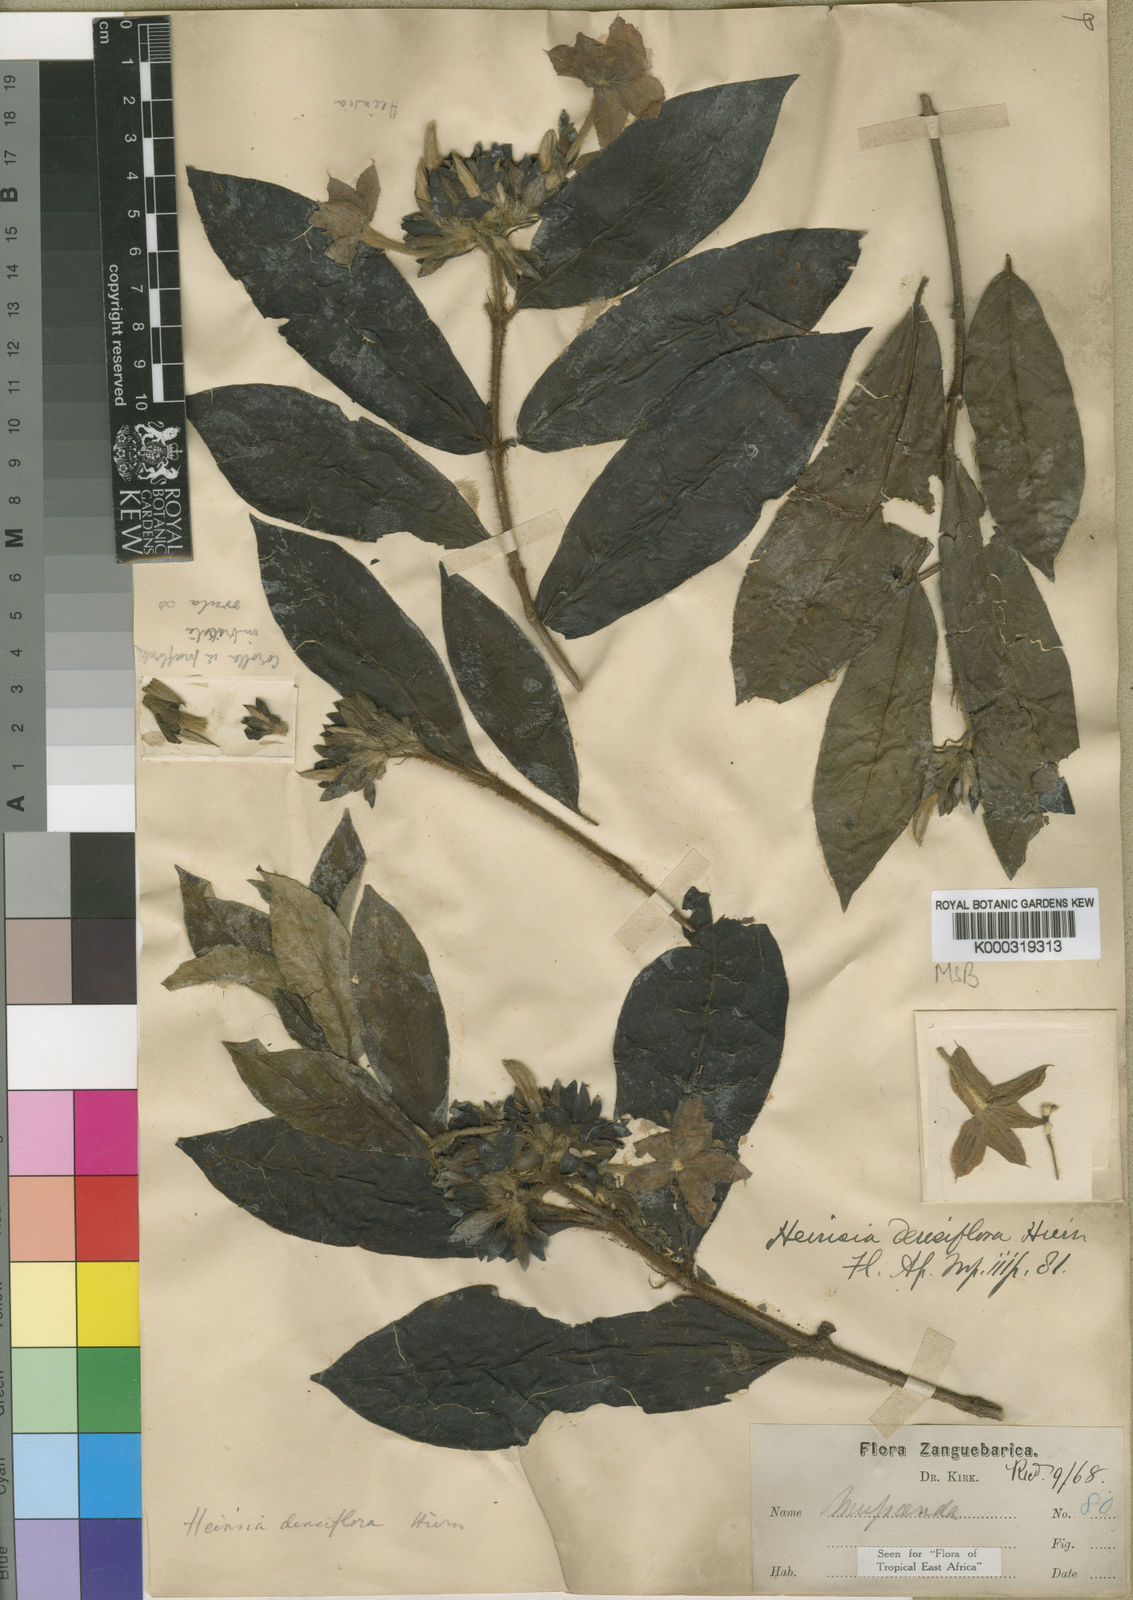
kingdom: Plantae
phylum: Tracheophyta
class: Magnoliopsida
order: Gentianales
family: Rubiaceae
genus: Heinsia
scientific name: Heinsia zanzibarica
